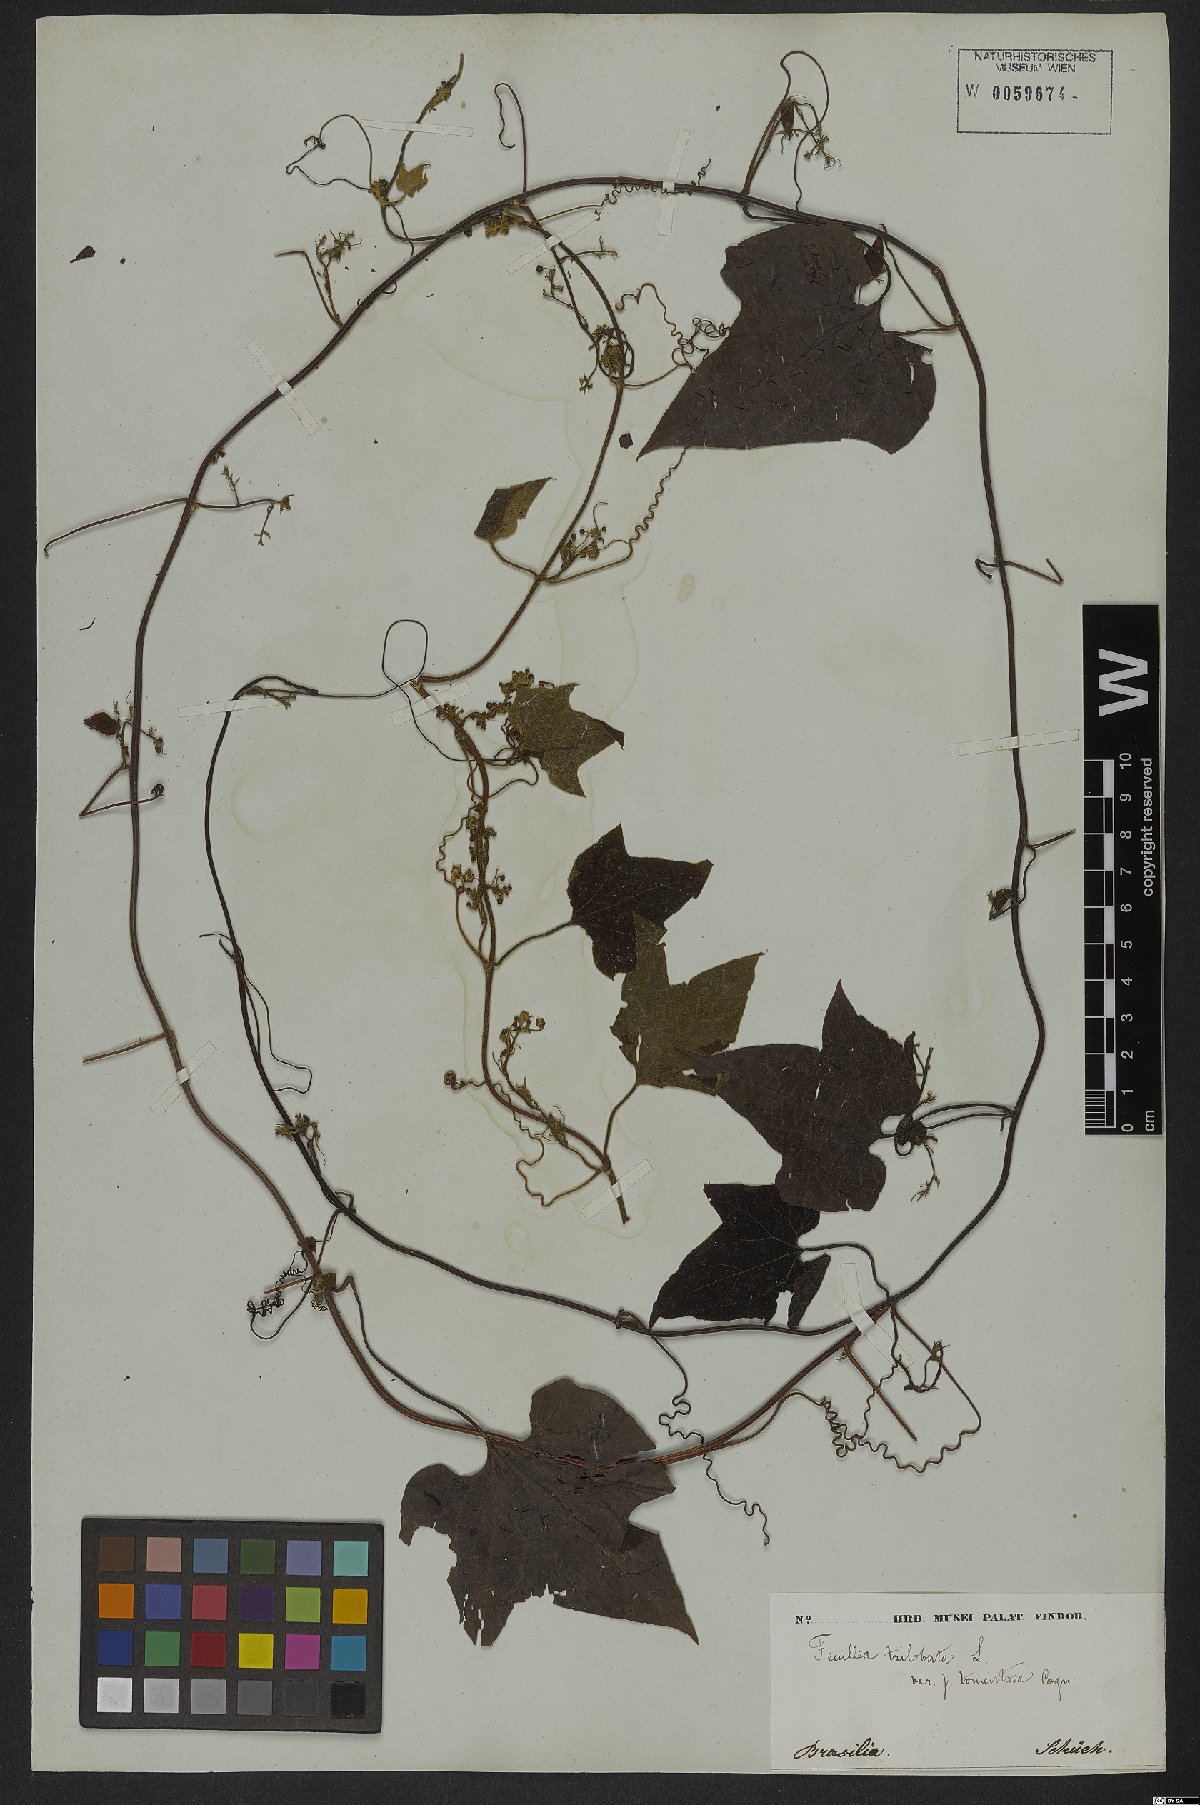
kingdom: Plantae
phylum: Tracheophyta
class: Magnoliopsida
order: Cucurbitales
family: Cucurbitaceae
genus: Fevillea
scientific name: Fevillea trilobata
